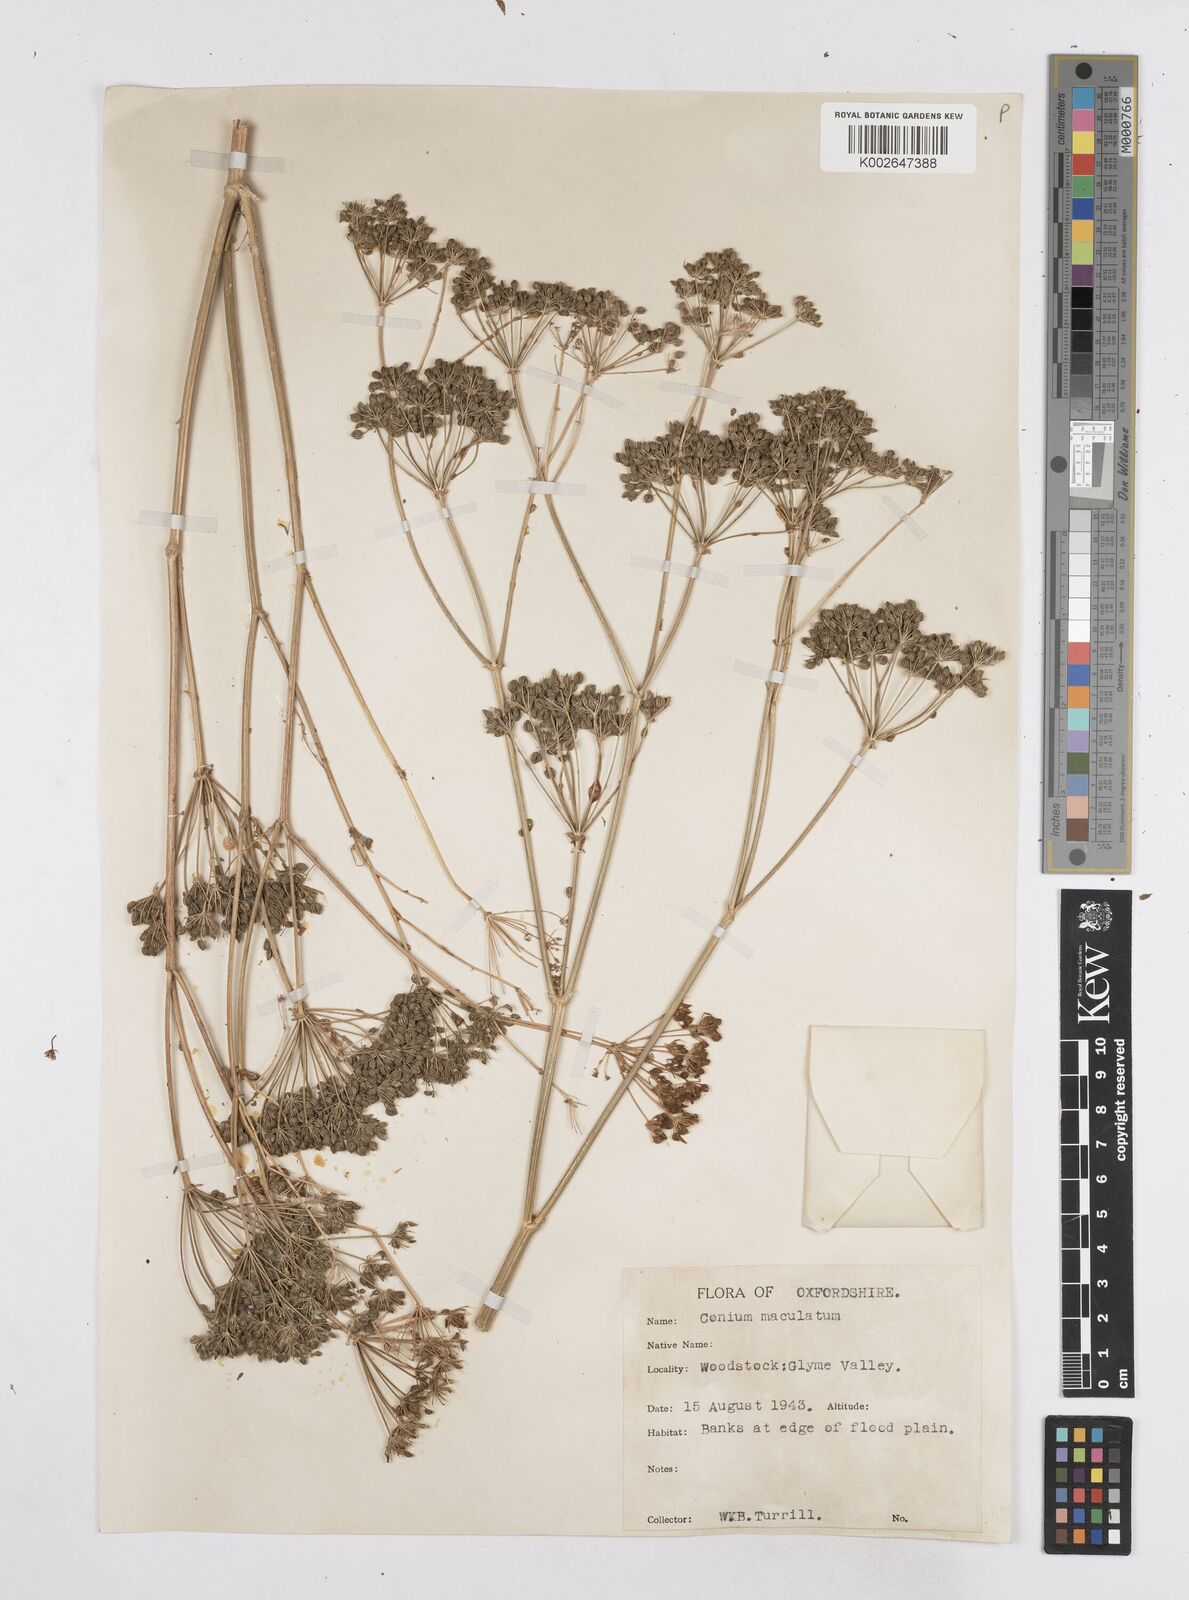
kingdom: Plantae
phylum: Tracheophyta
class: Magnoliopsida
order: Apiales
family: Apiaceae
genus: Conium
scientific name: Conium maculatum
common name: Hemlock
